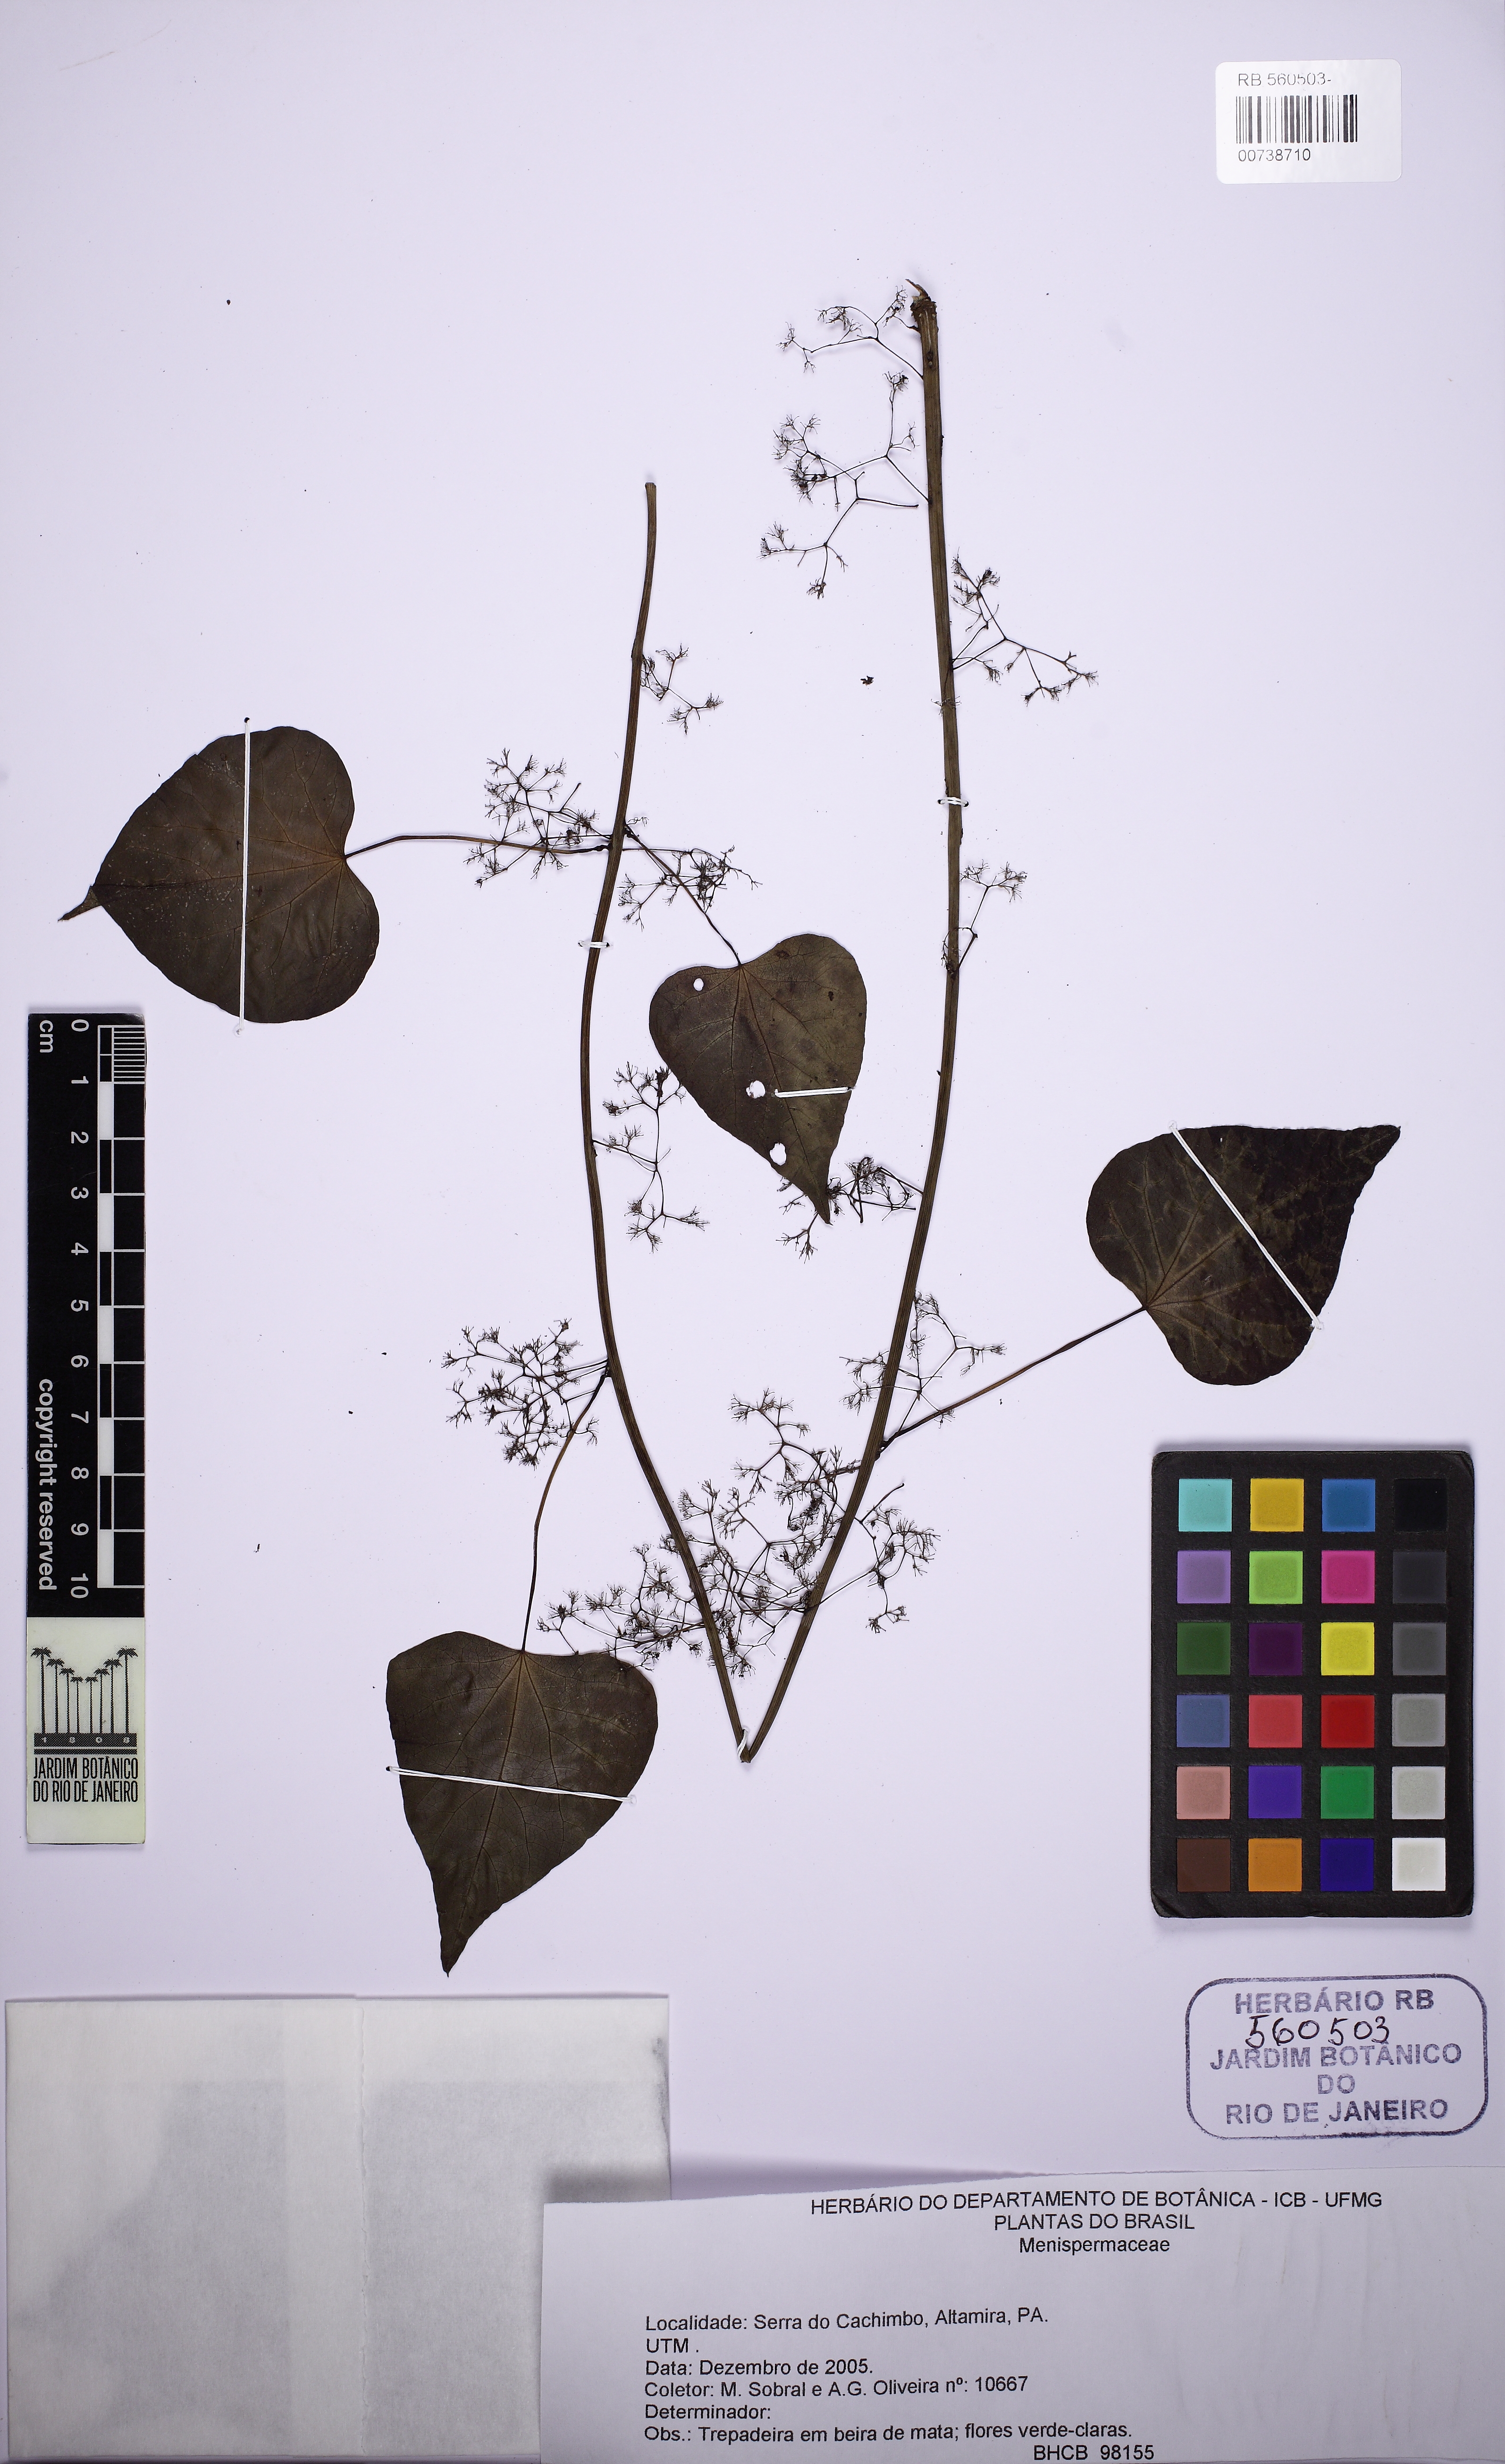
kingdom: Plantae
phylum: Tracheophyta
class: Magnoliopsida
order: Ranunculales
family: Menispermaceae
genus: Cissampelos
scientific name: Cissampelos
